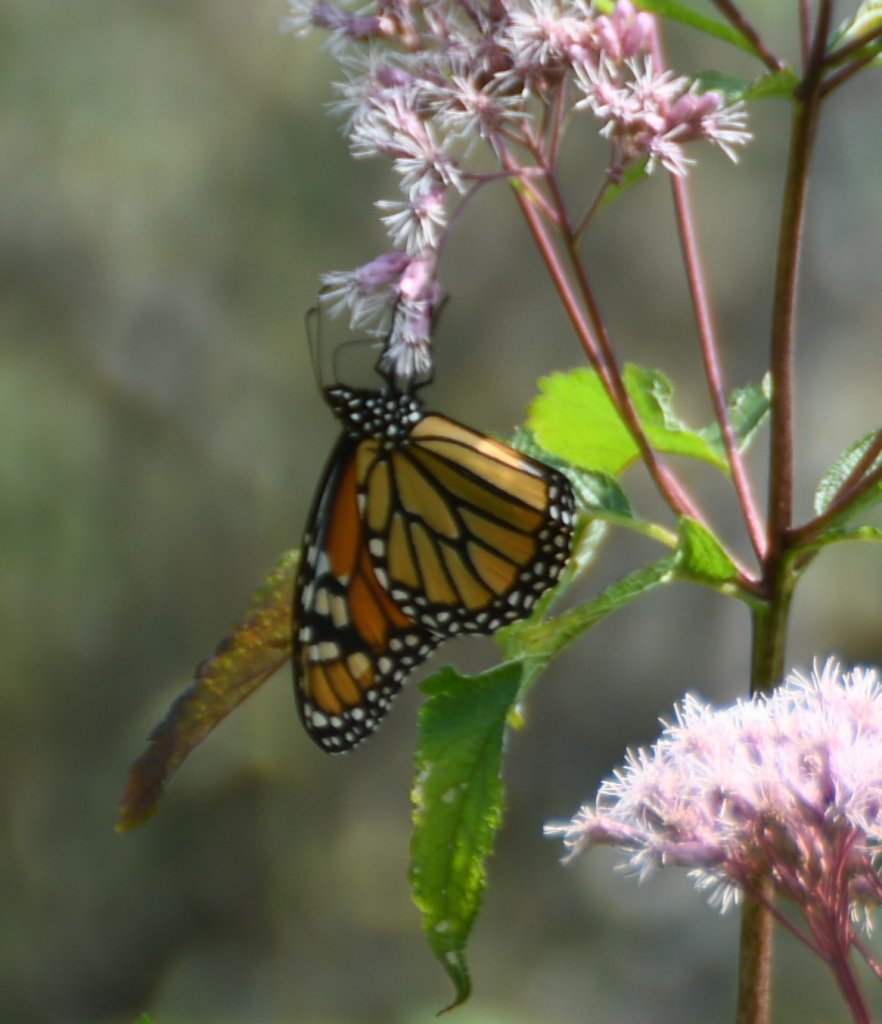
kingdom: Animalia
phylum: Arthropoda
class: Insecta
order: Lepidoptera
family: Nymphalidae
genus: Danaus
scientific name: Danaus plexippus
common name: Monarch
